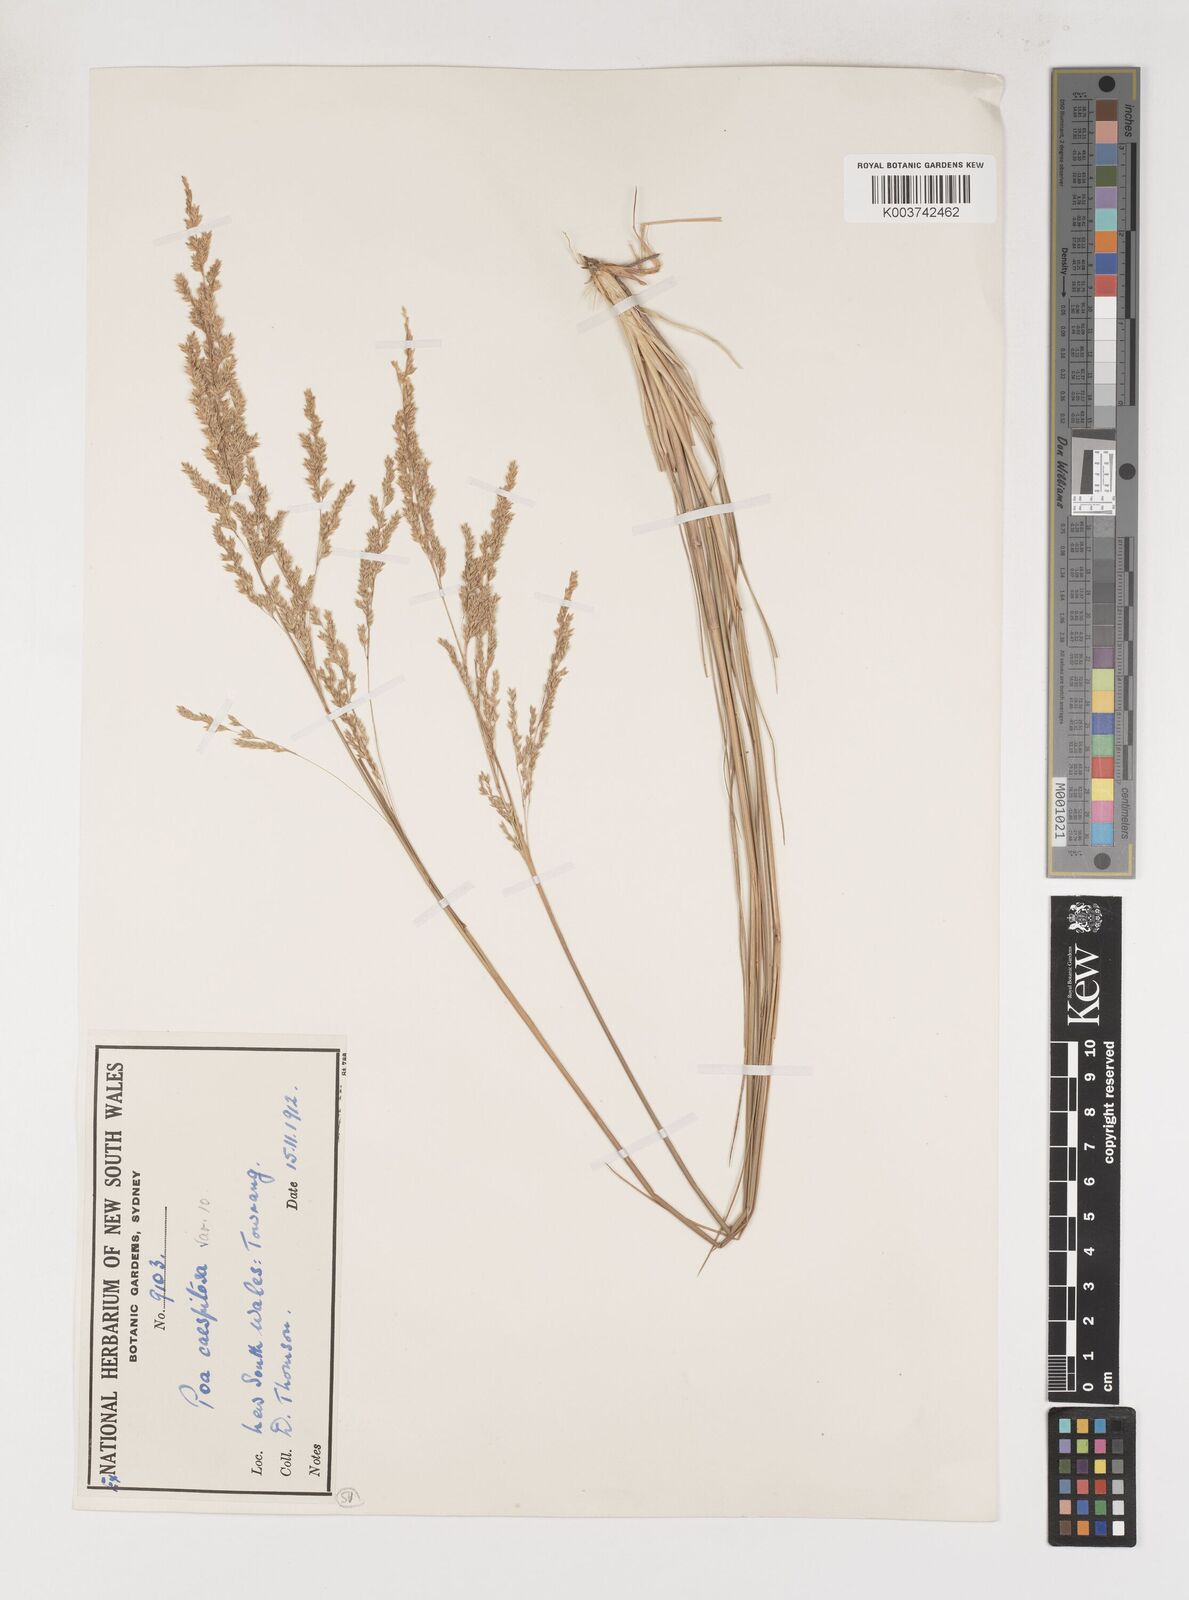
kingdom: Plantae
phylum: Tracheophyta
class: Liliopsida
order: Poales
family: Poaceae
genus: Poa
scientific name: Poa
